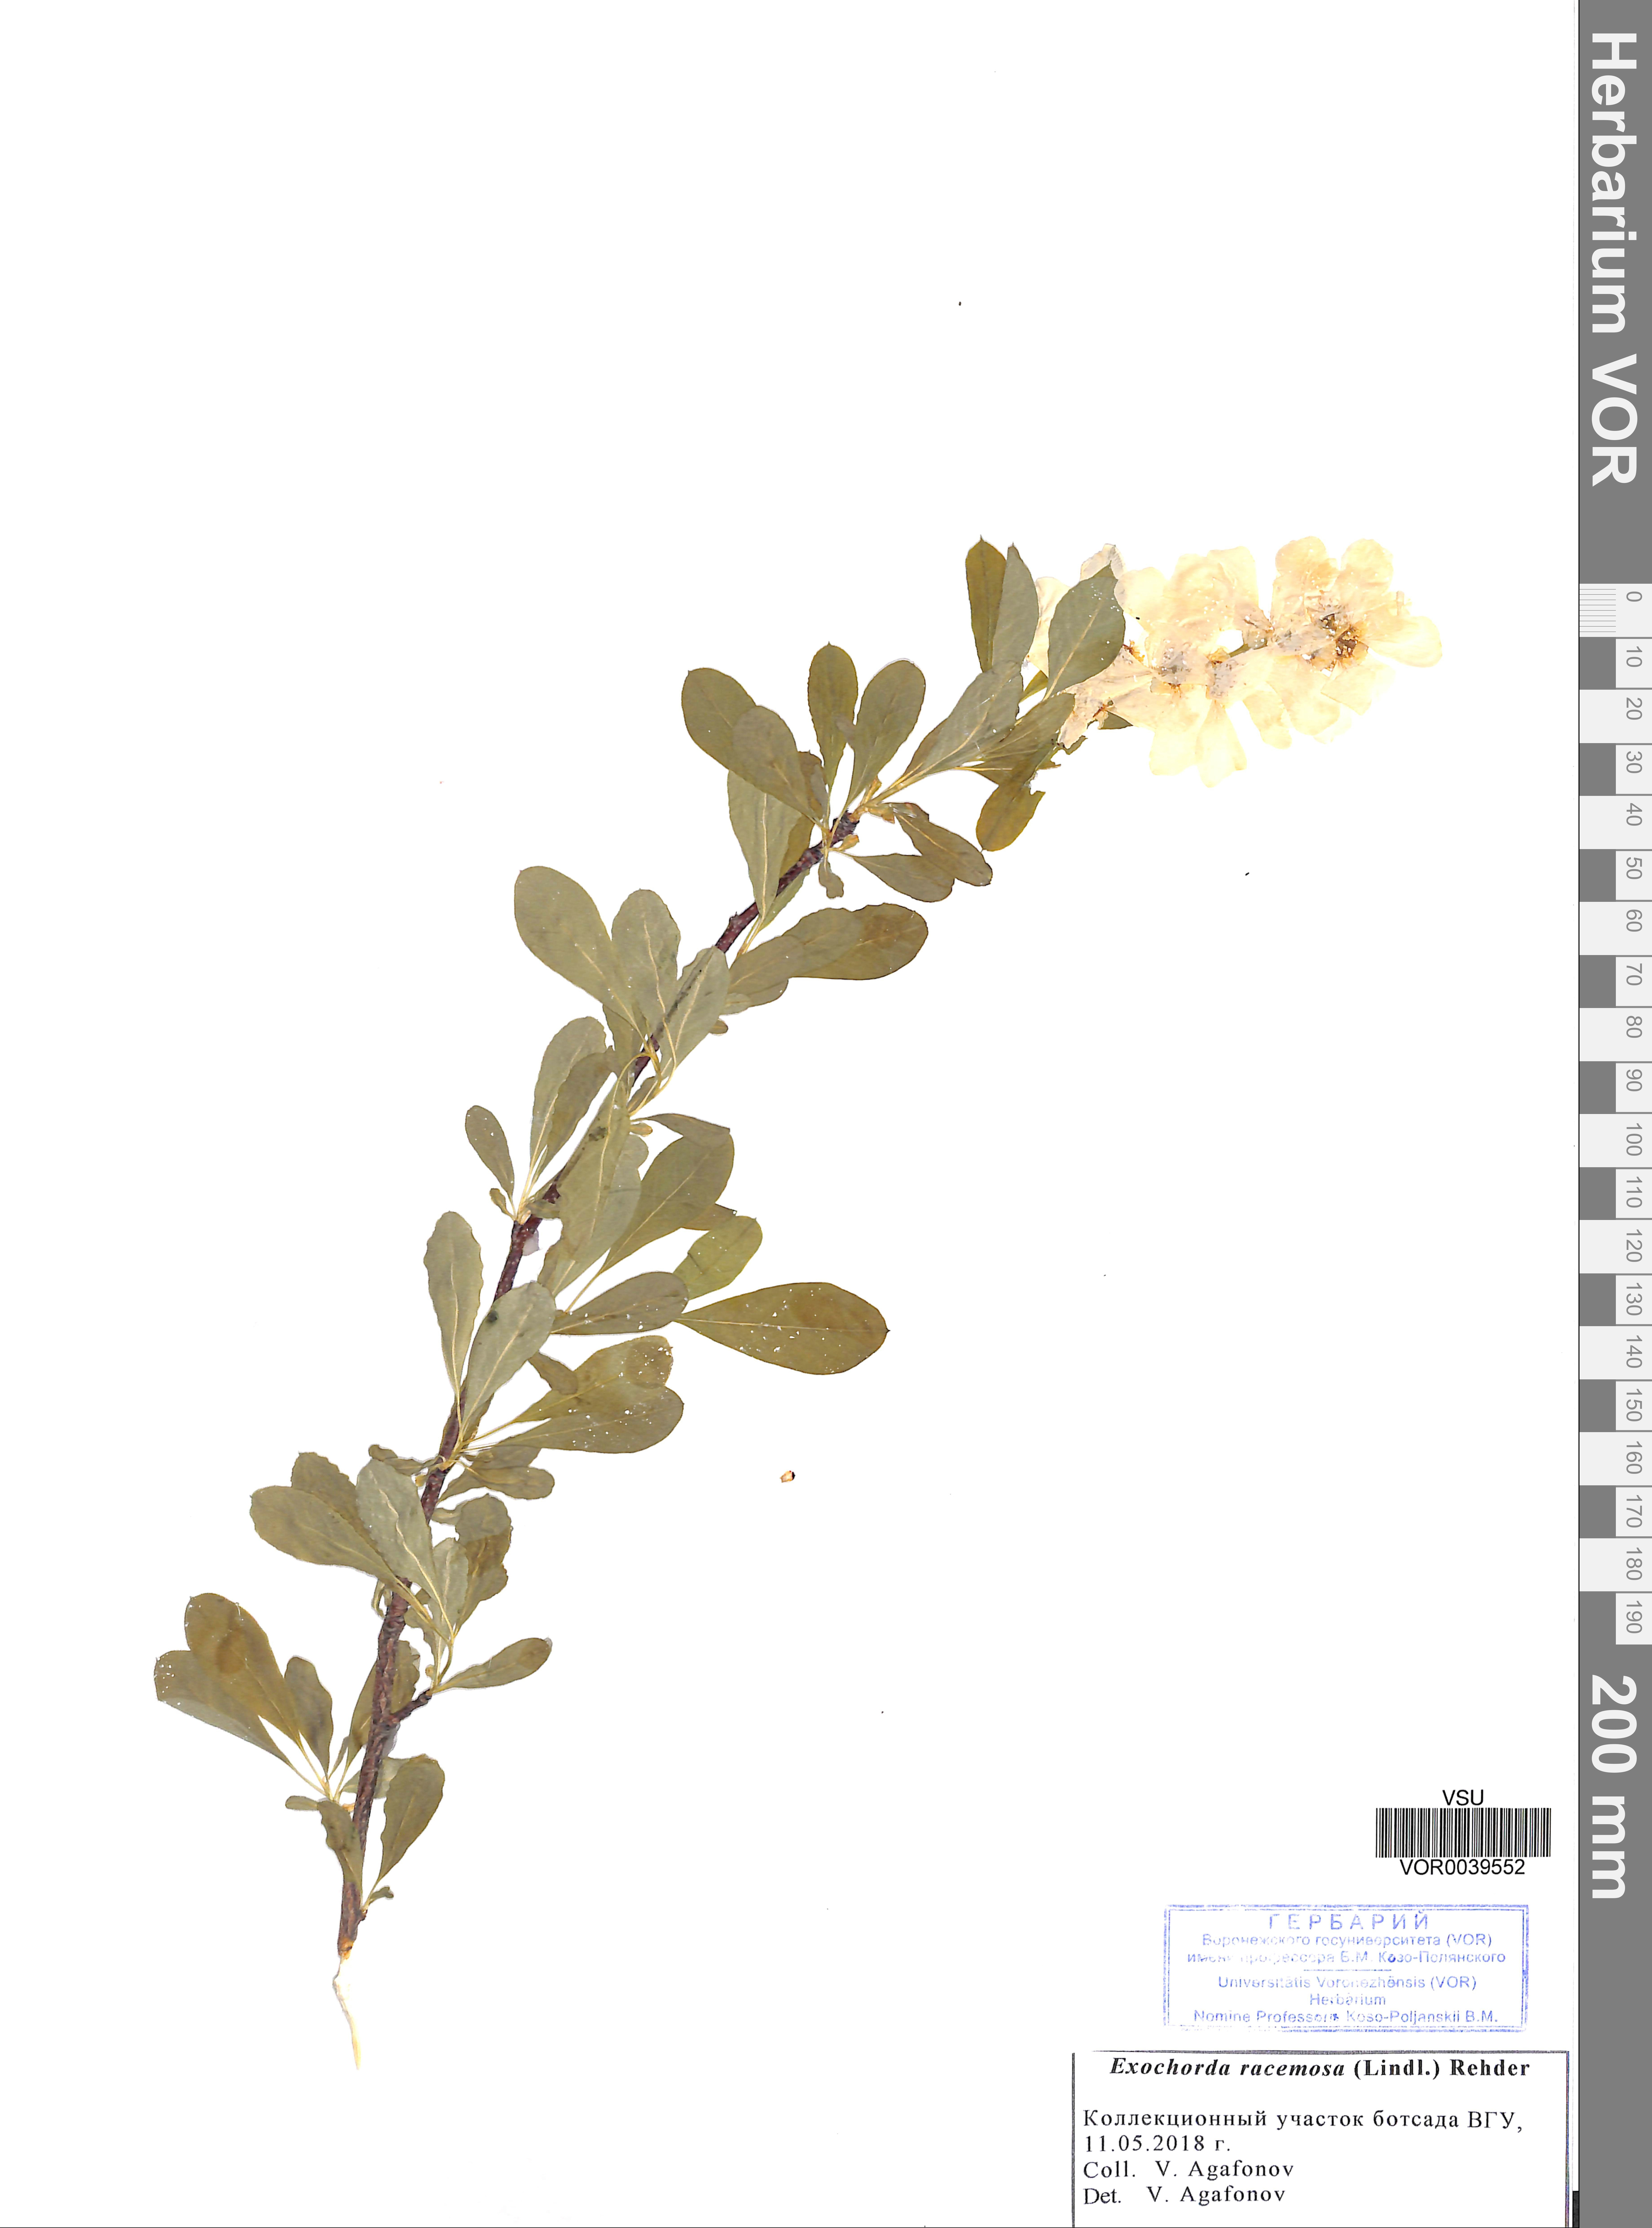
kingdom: Plantae
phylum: Tracheophyta
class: Magnoliopsida
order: Rosales
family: Rosaceae
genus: Exochorda
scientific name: Exochorda racemosa
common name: Common pearlbrush
